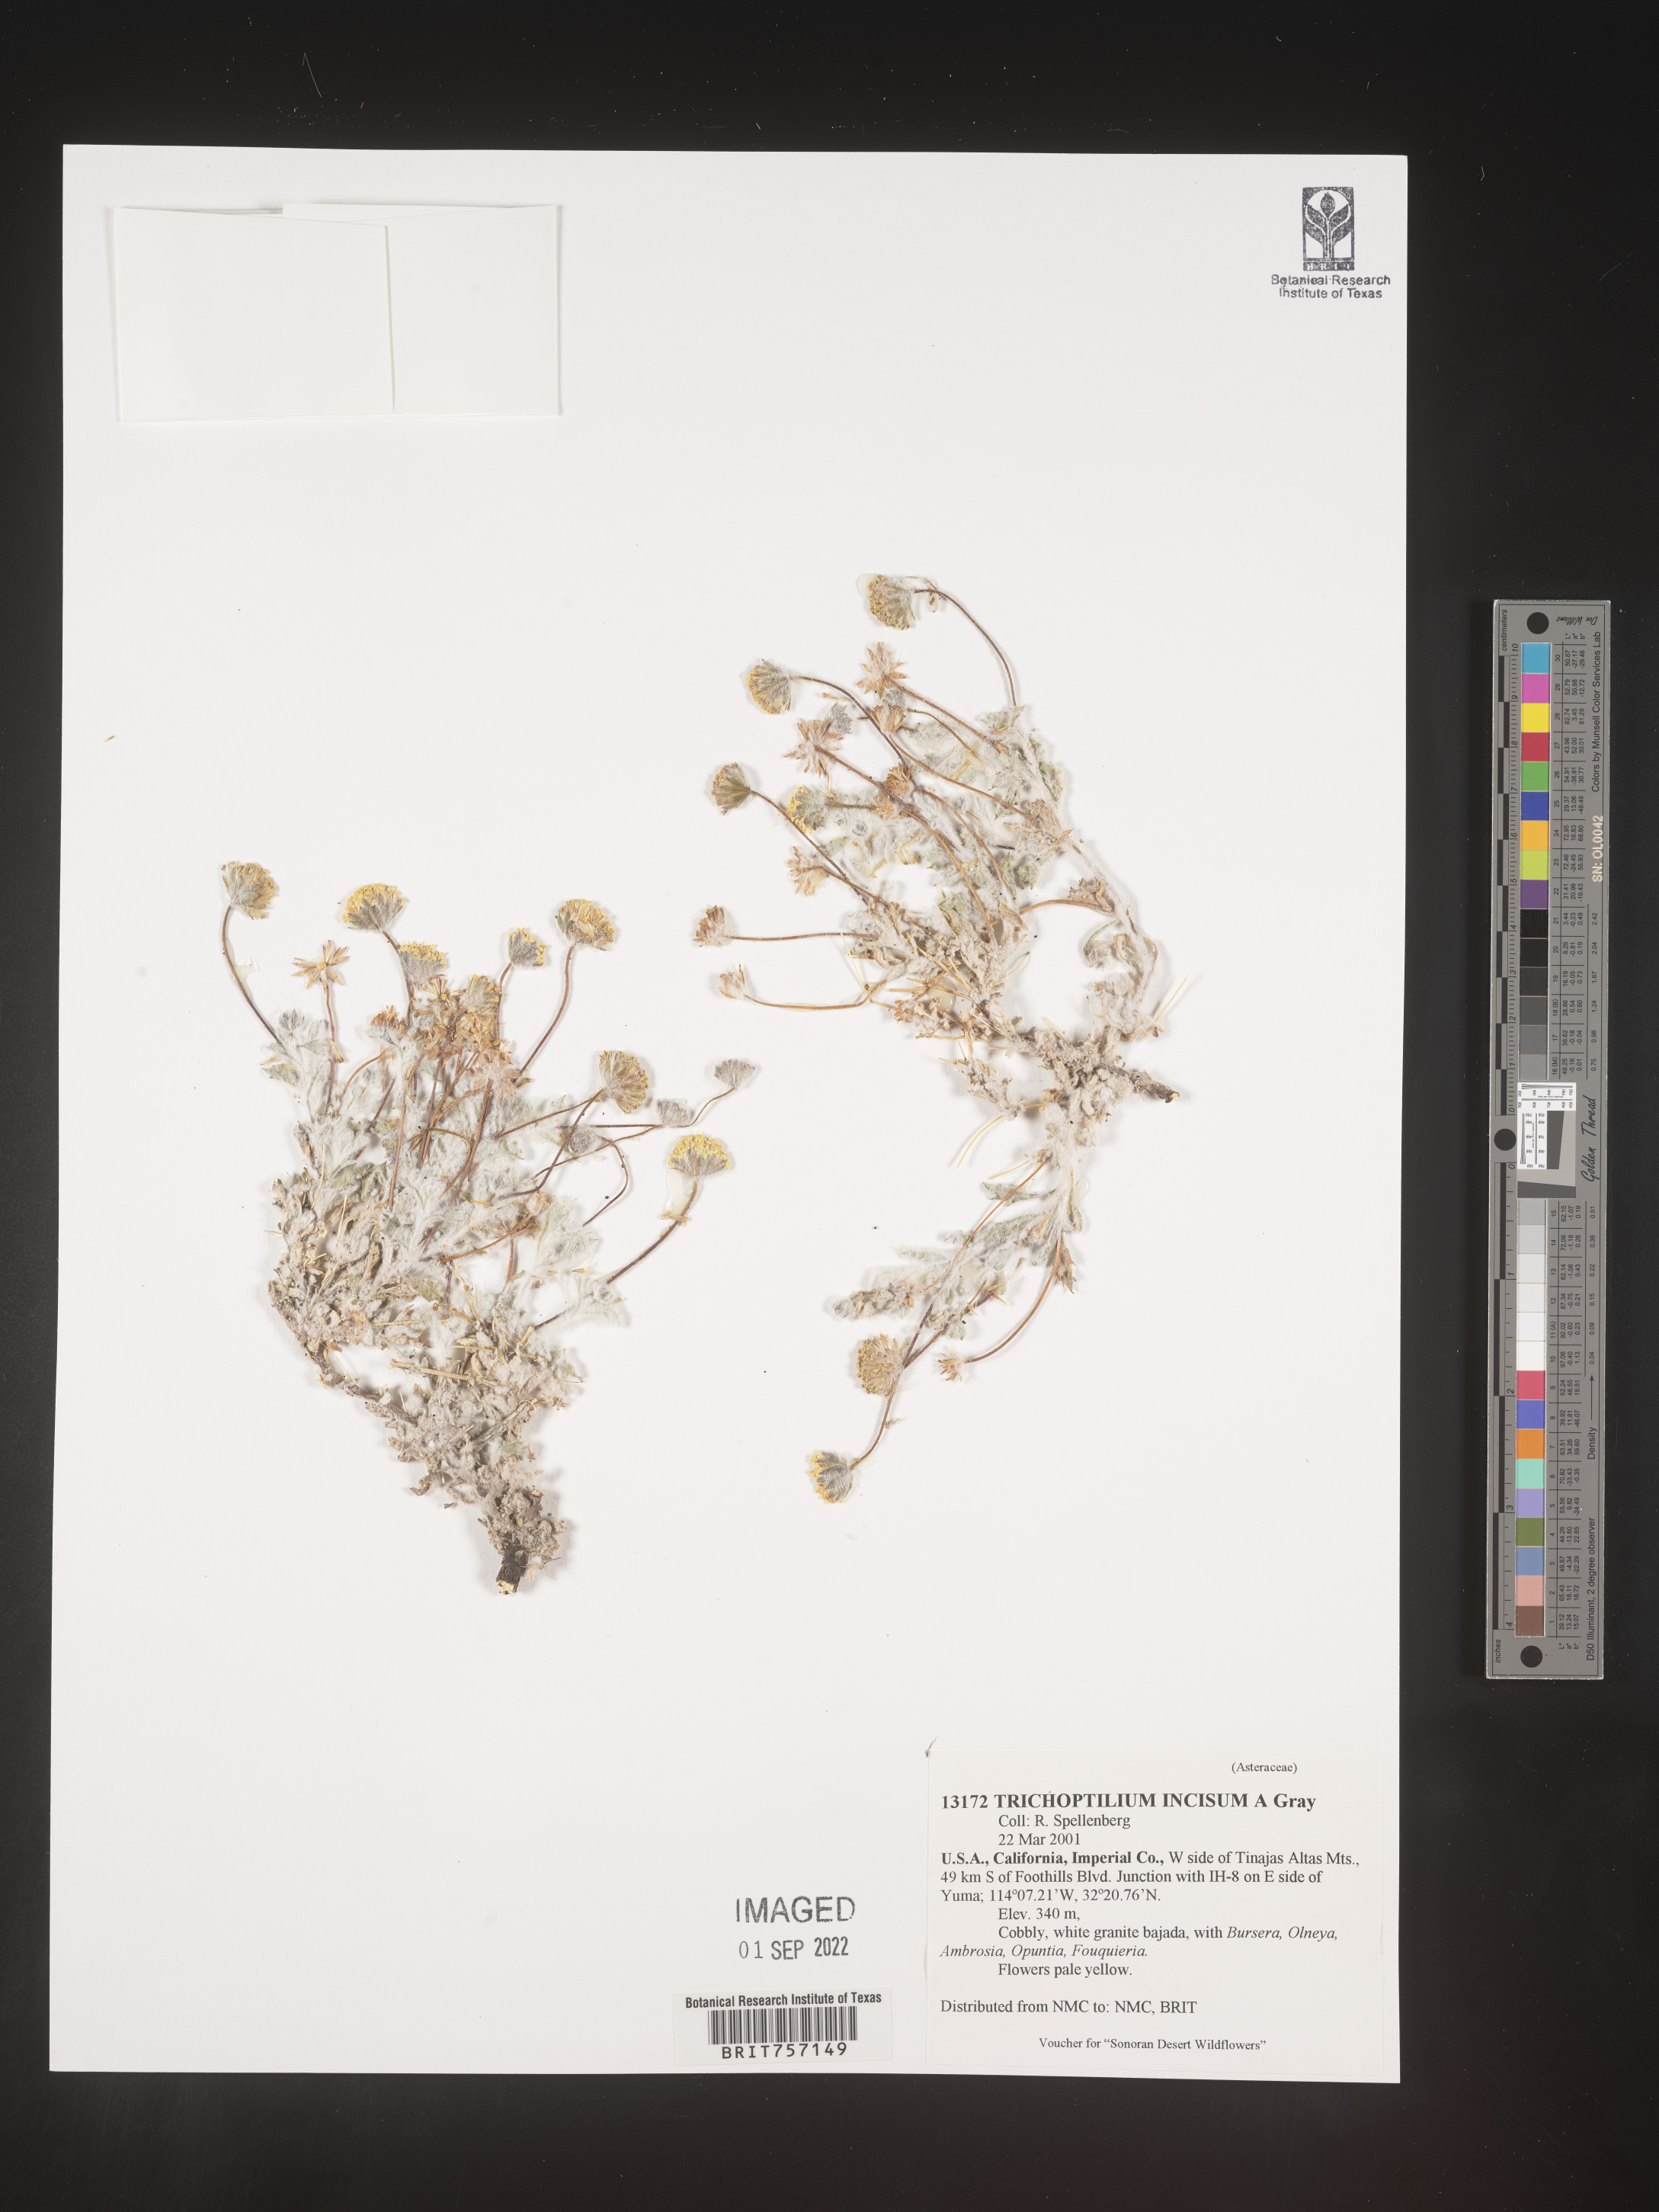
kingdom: Plantae
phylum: Tracheophyta
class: Magnoliopsida
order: Asterales
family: Asteraceae
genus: Trichoptilium
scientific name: Trichoptilium
